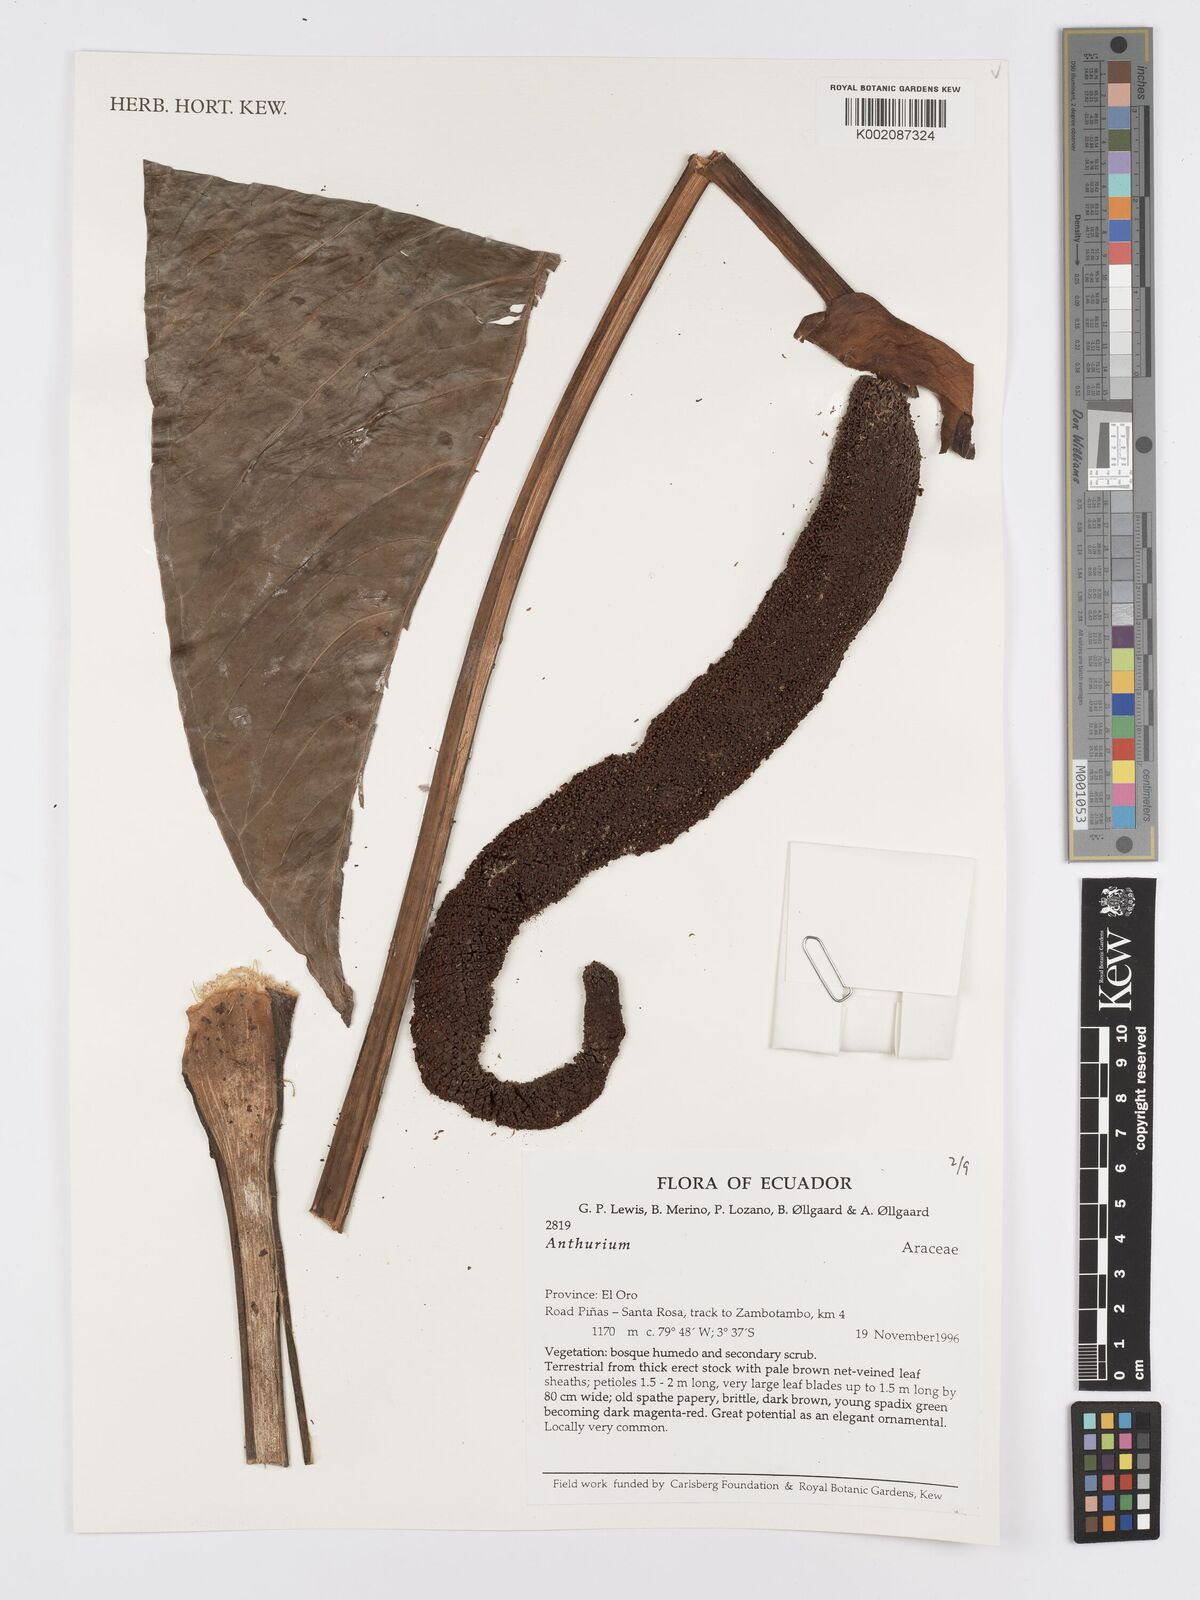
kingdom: Plantae
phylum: Tracheophyta
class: Liliopsida
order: Alismatales
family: Araceae
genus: Anthurium
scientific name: Anthurium
